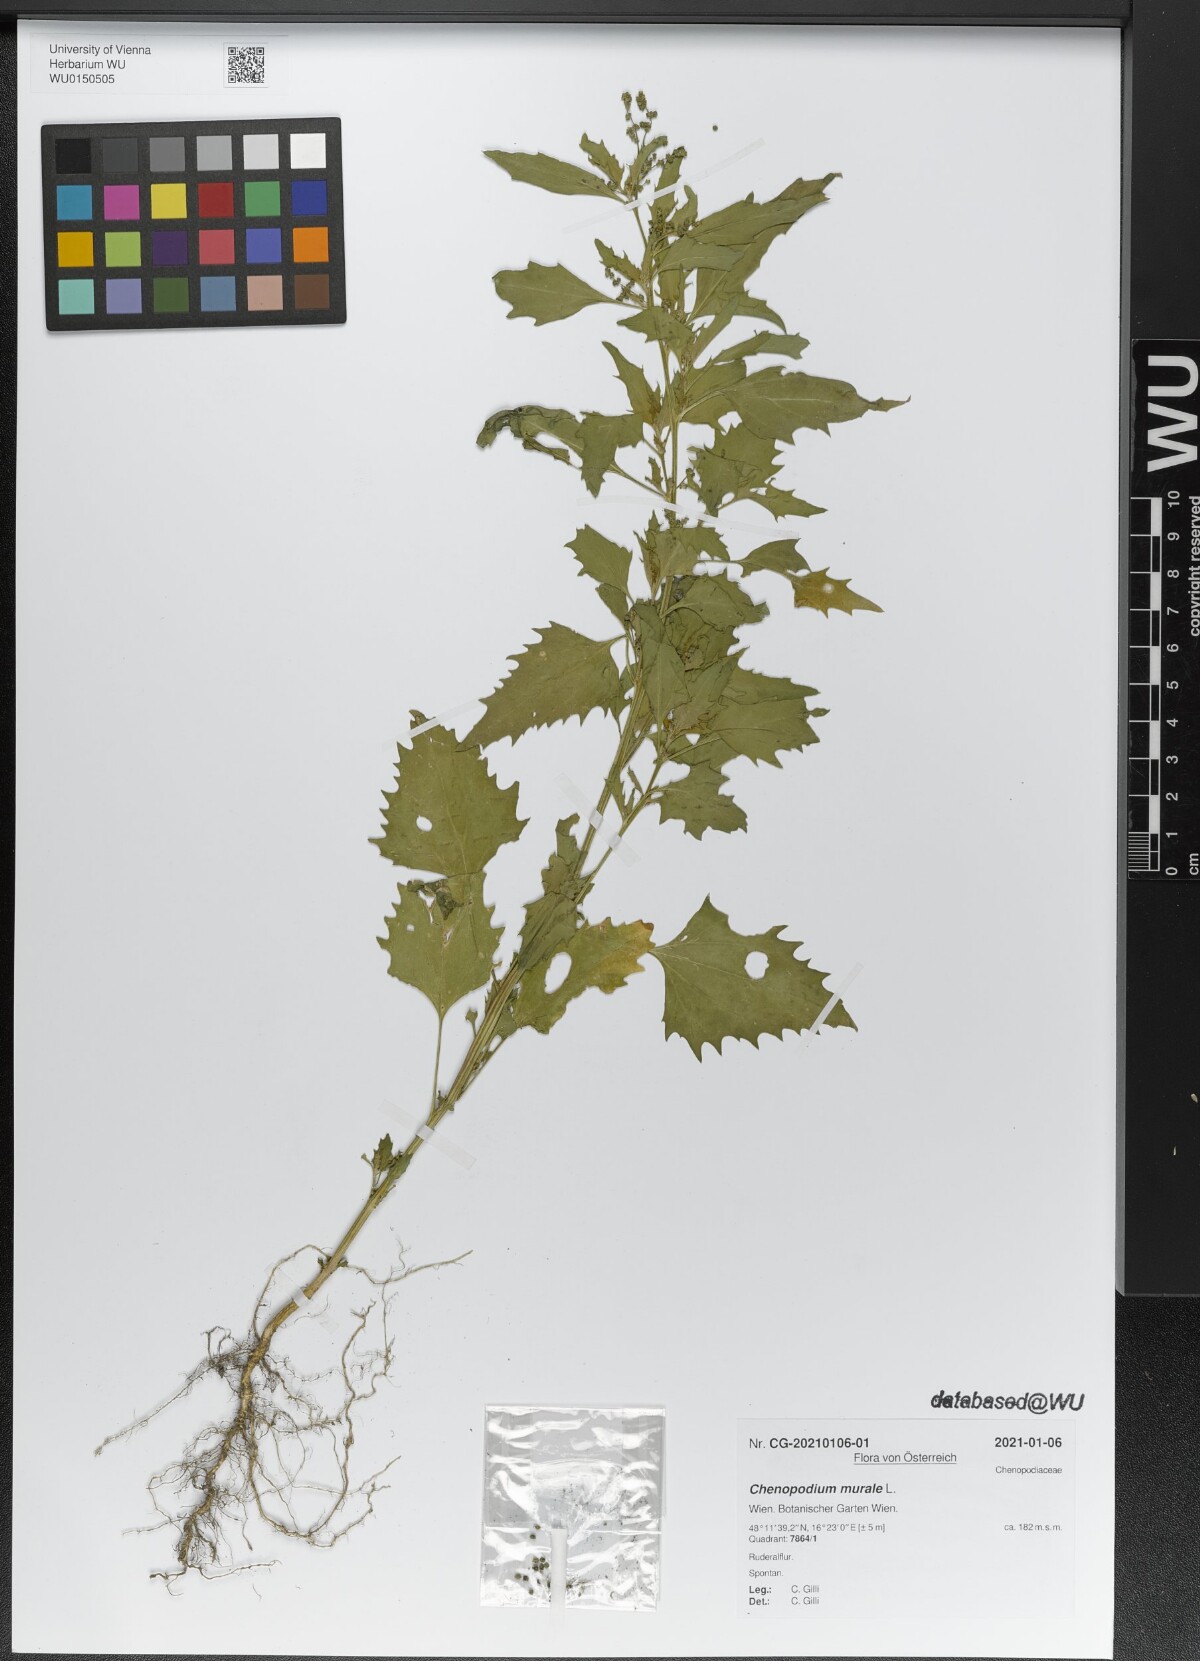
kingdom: Plantae
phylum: Tracheophyta
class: Magnoliopsida
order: Caryophyllales
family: Amaranthaceae
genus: Chenopodiastrum
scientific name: Chenopodiastrum murale
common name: Sowbane
